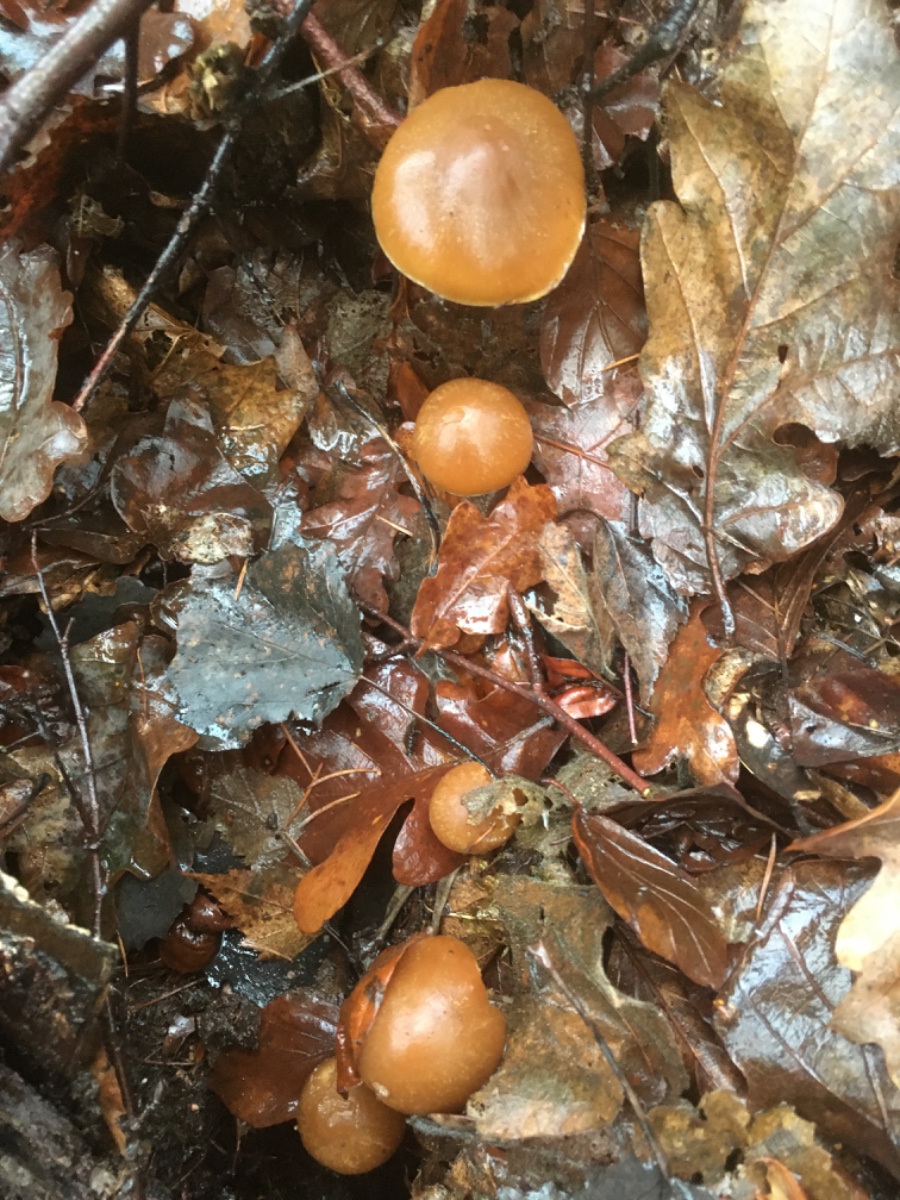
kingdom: Fungi
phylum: Basidiomycota
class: Agaricomycetes
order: Agaricales
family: Psathyrellaceae
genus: Psathyrella
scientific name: Psathyrella
